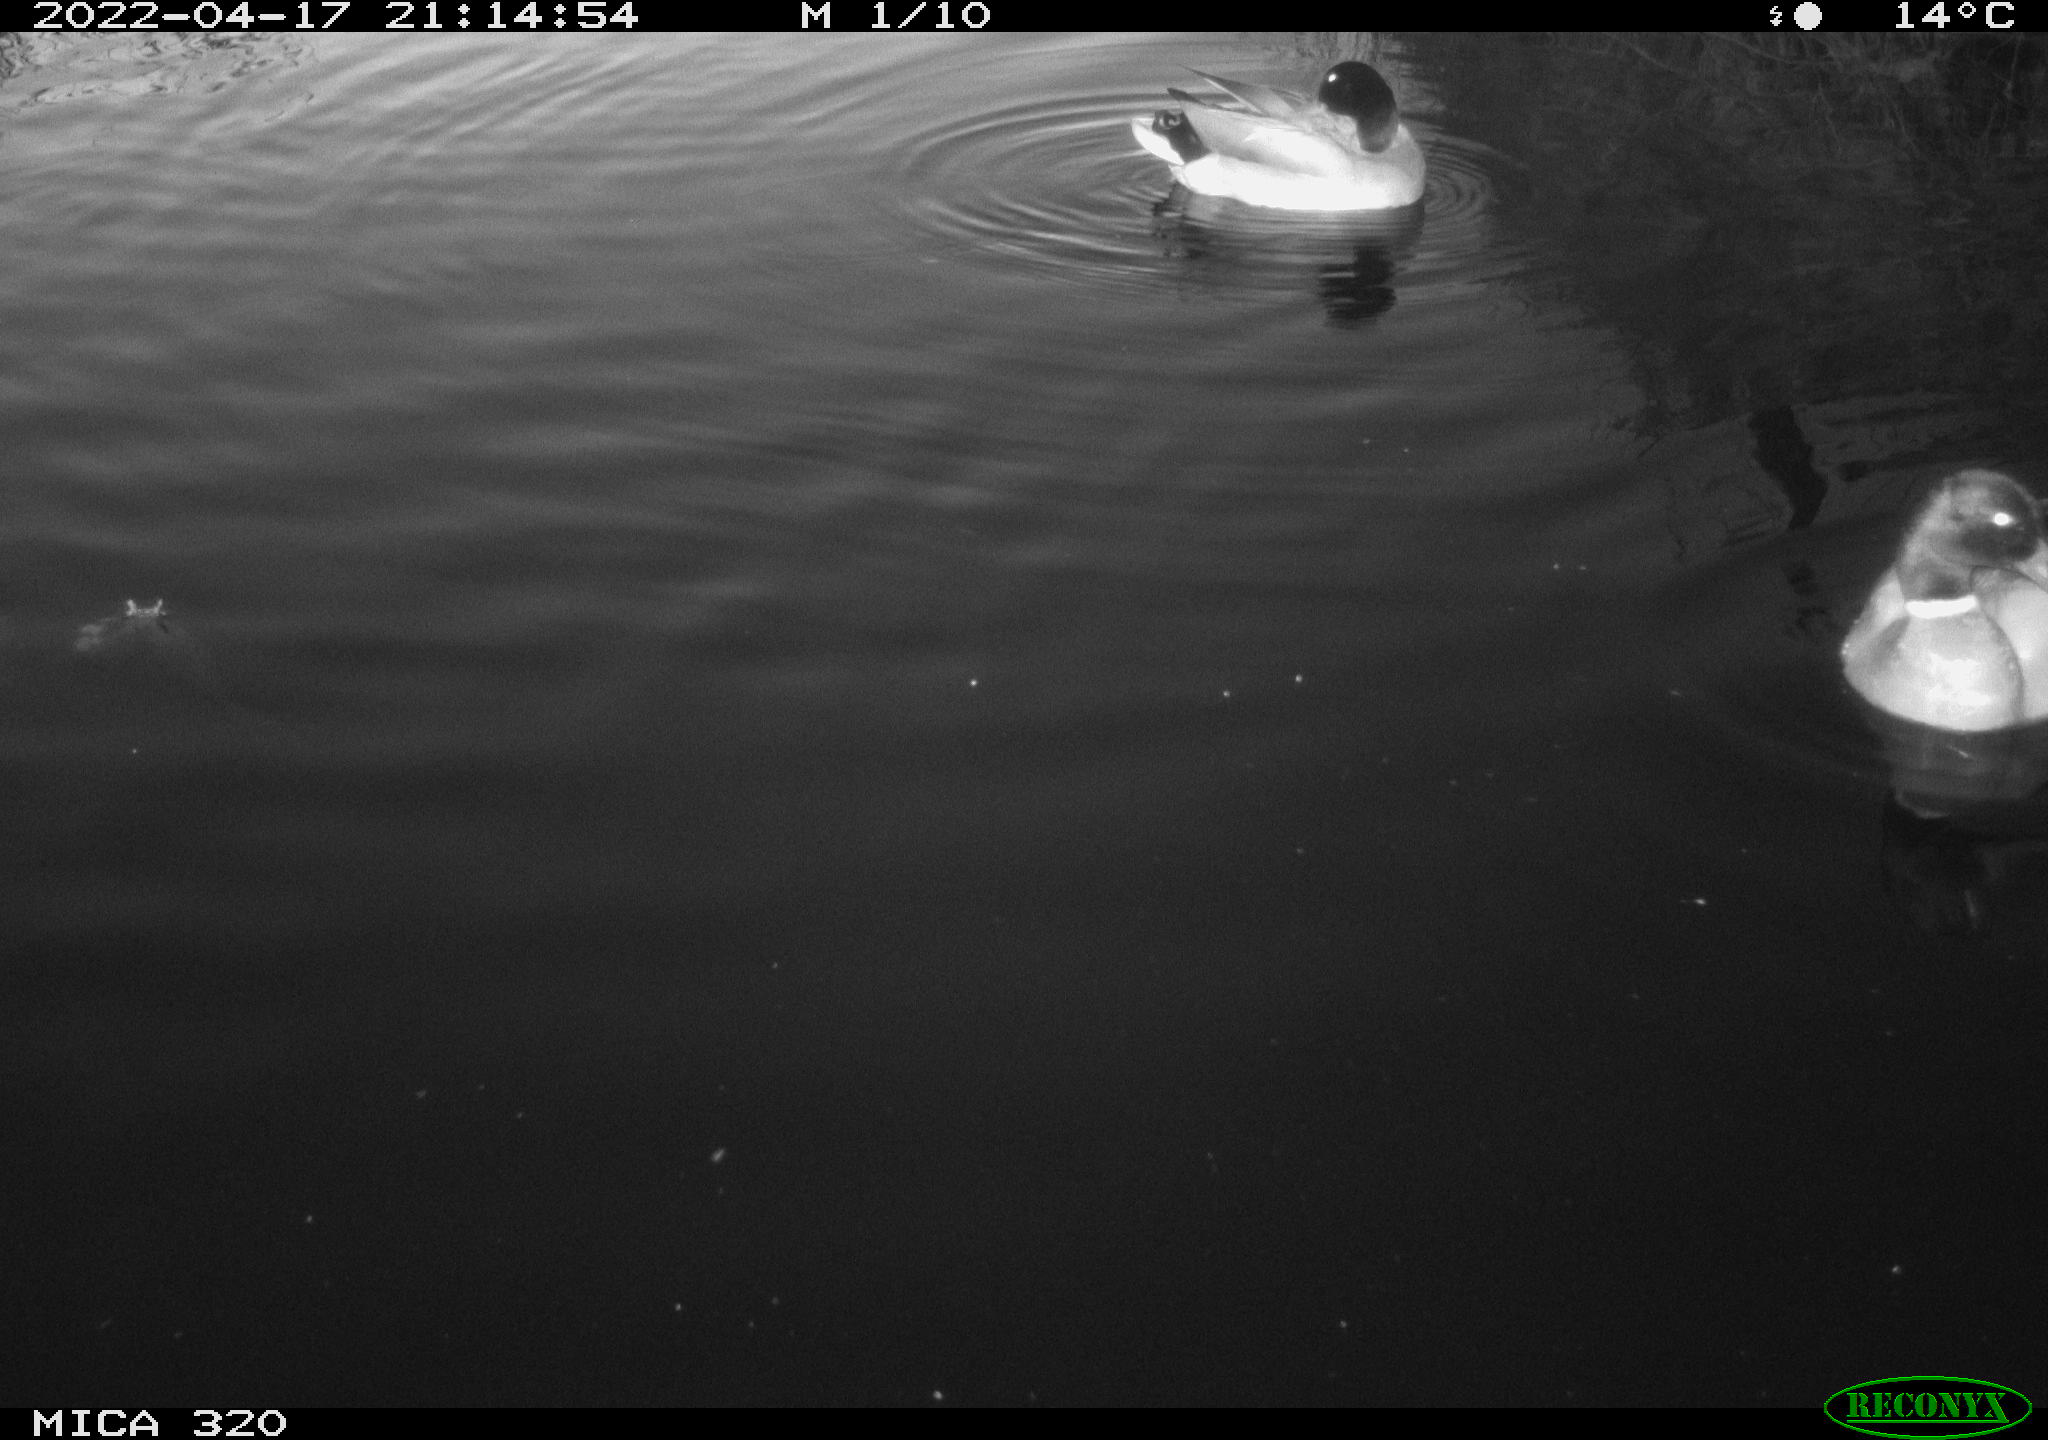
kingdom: Animalia
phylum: Chordata
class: Aves
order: Anseriformes
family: Anatidae
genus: Anas
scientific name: Anas platyrhynchos
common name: Mallard
